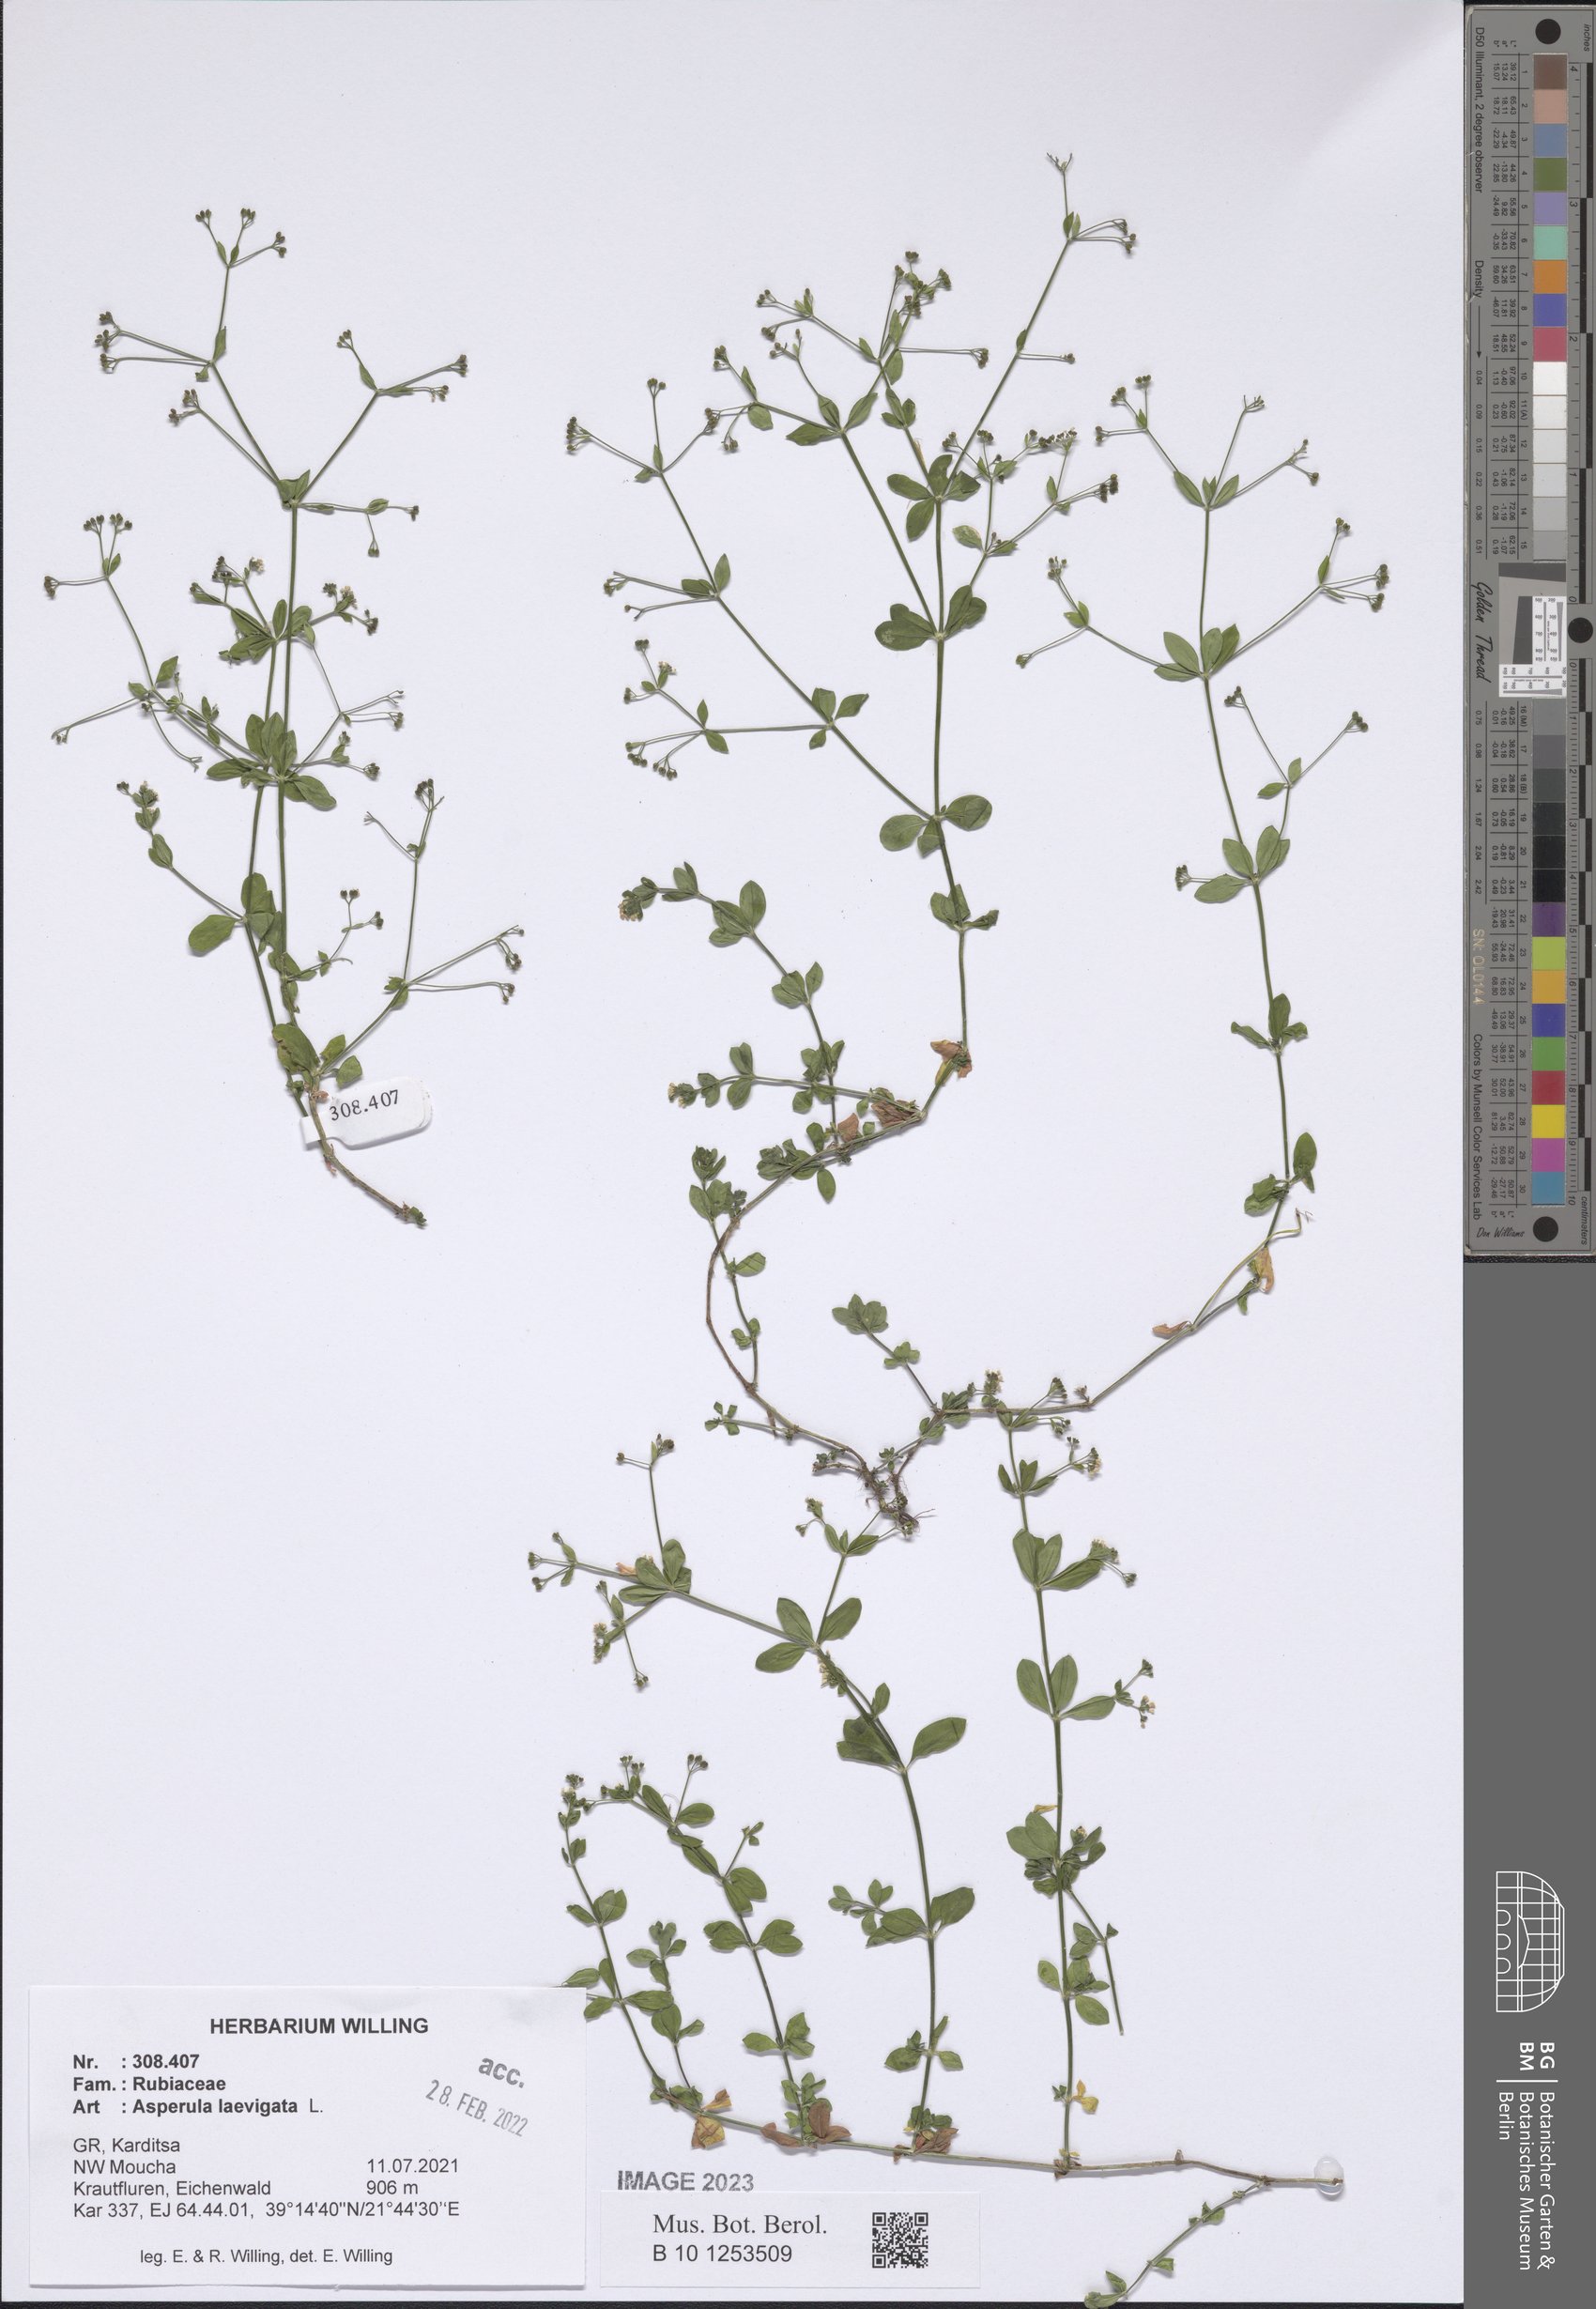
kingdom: Plantae
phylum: Tracheophyta
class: Magnoliopsida
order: Gentianales
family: Rubiaceae
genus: Asperula
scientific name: Asperula laevigata
